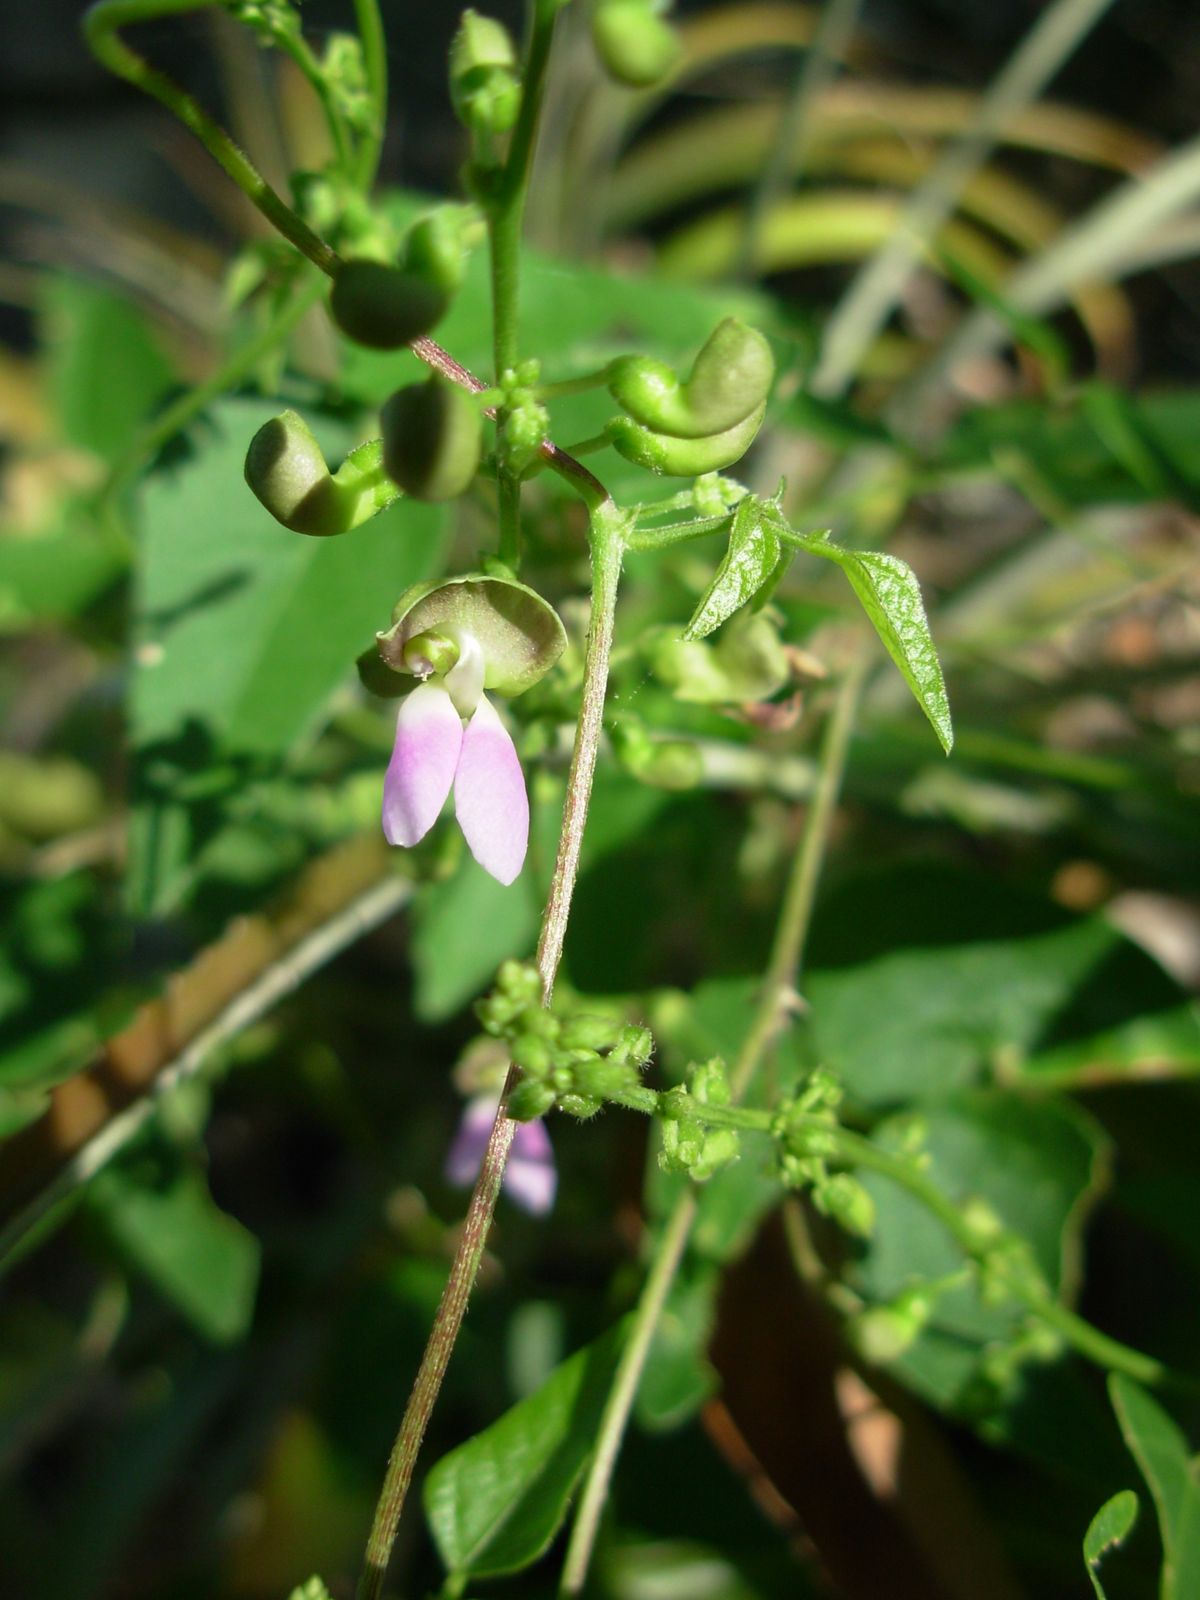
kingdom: Plantae
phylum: Tracheophyta
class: Magnoliopsida
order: Fabales
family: Fabaceae
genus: Phaseolus
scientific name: Phaseolus lunatus
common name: Sieva bean
